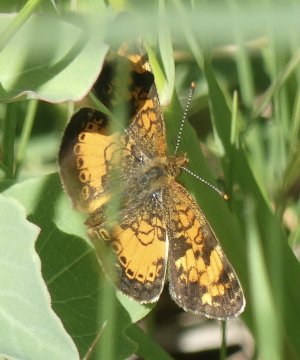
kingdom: Animalia
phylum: Arthropoda
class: Insecta
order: Lepidoptera
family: Nymphalidae
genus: Phyciodes
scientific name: Phyciodes
